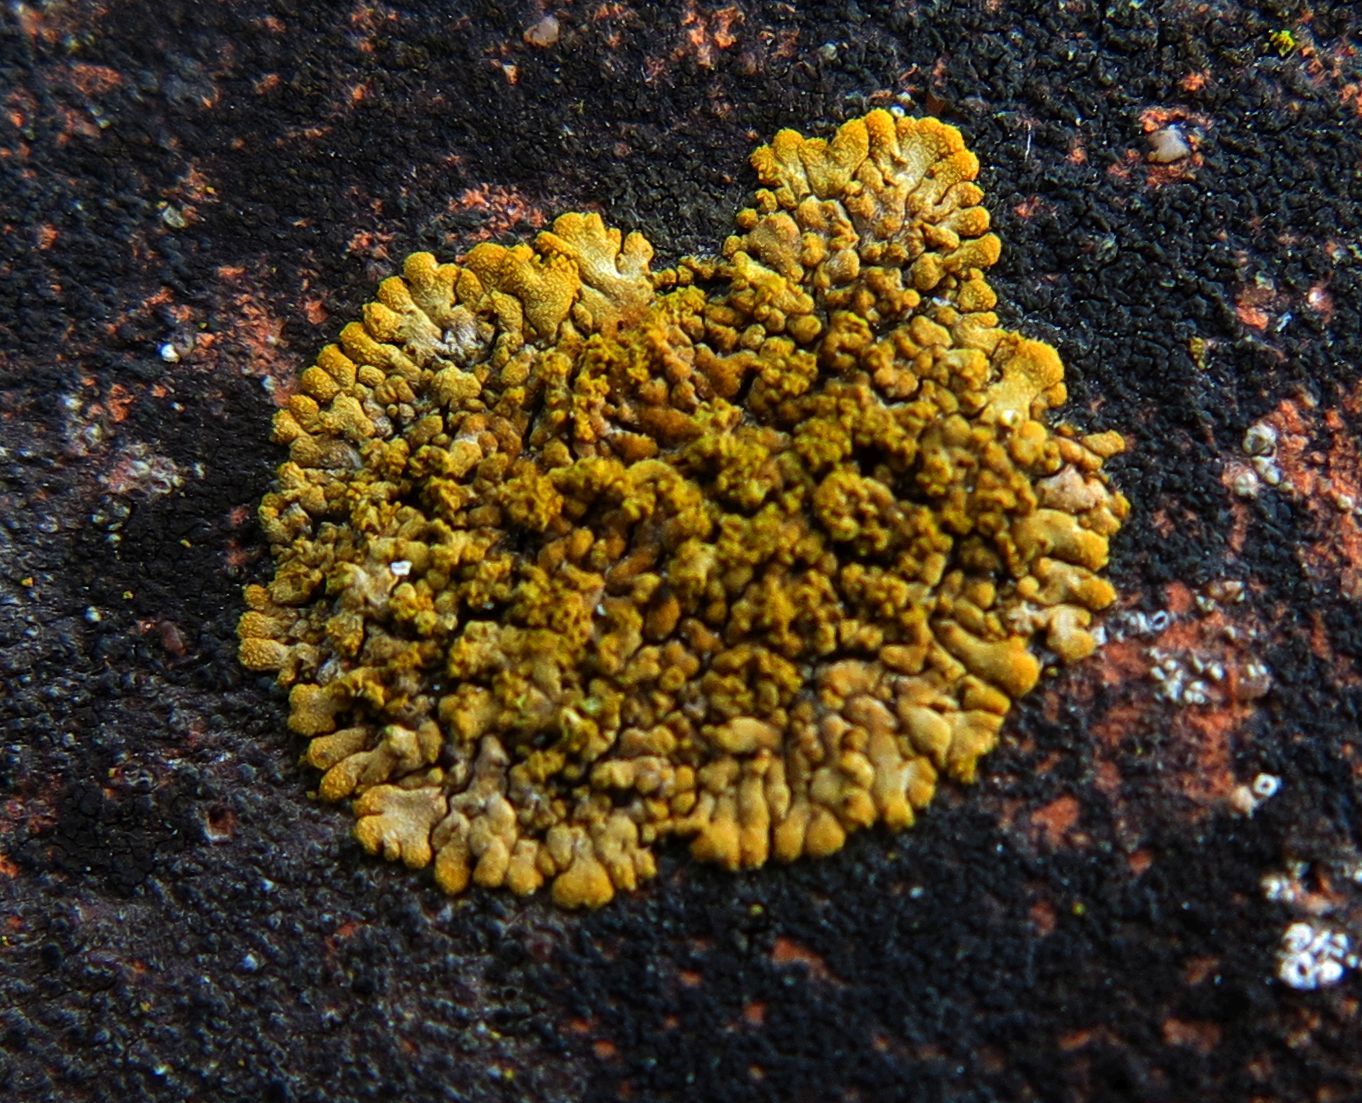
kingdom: Fungi
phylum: Ascomycota
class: Lecanoromycetes
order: Teloschistales
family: Teloschistaceae
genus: Calogaya
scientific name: Calogaya decipiens
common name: knudret orangelav
